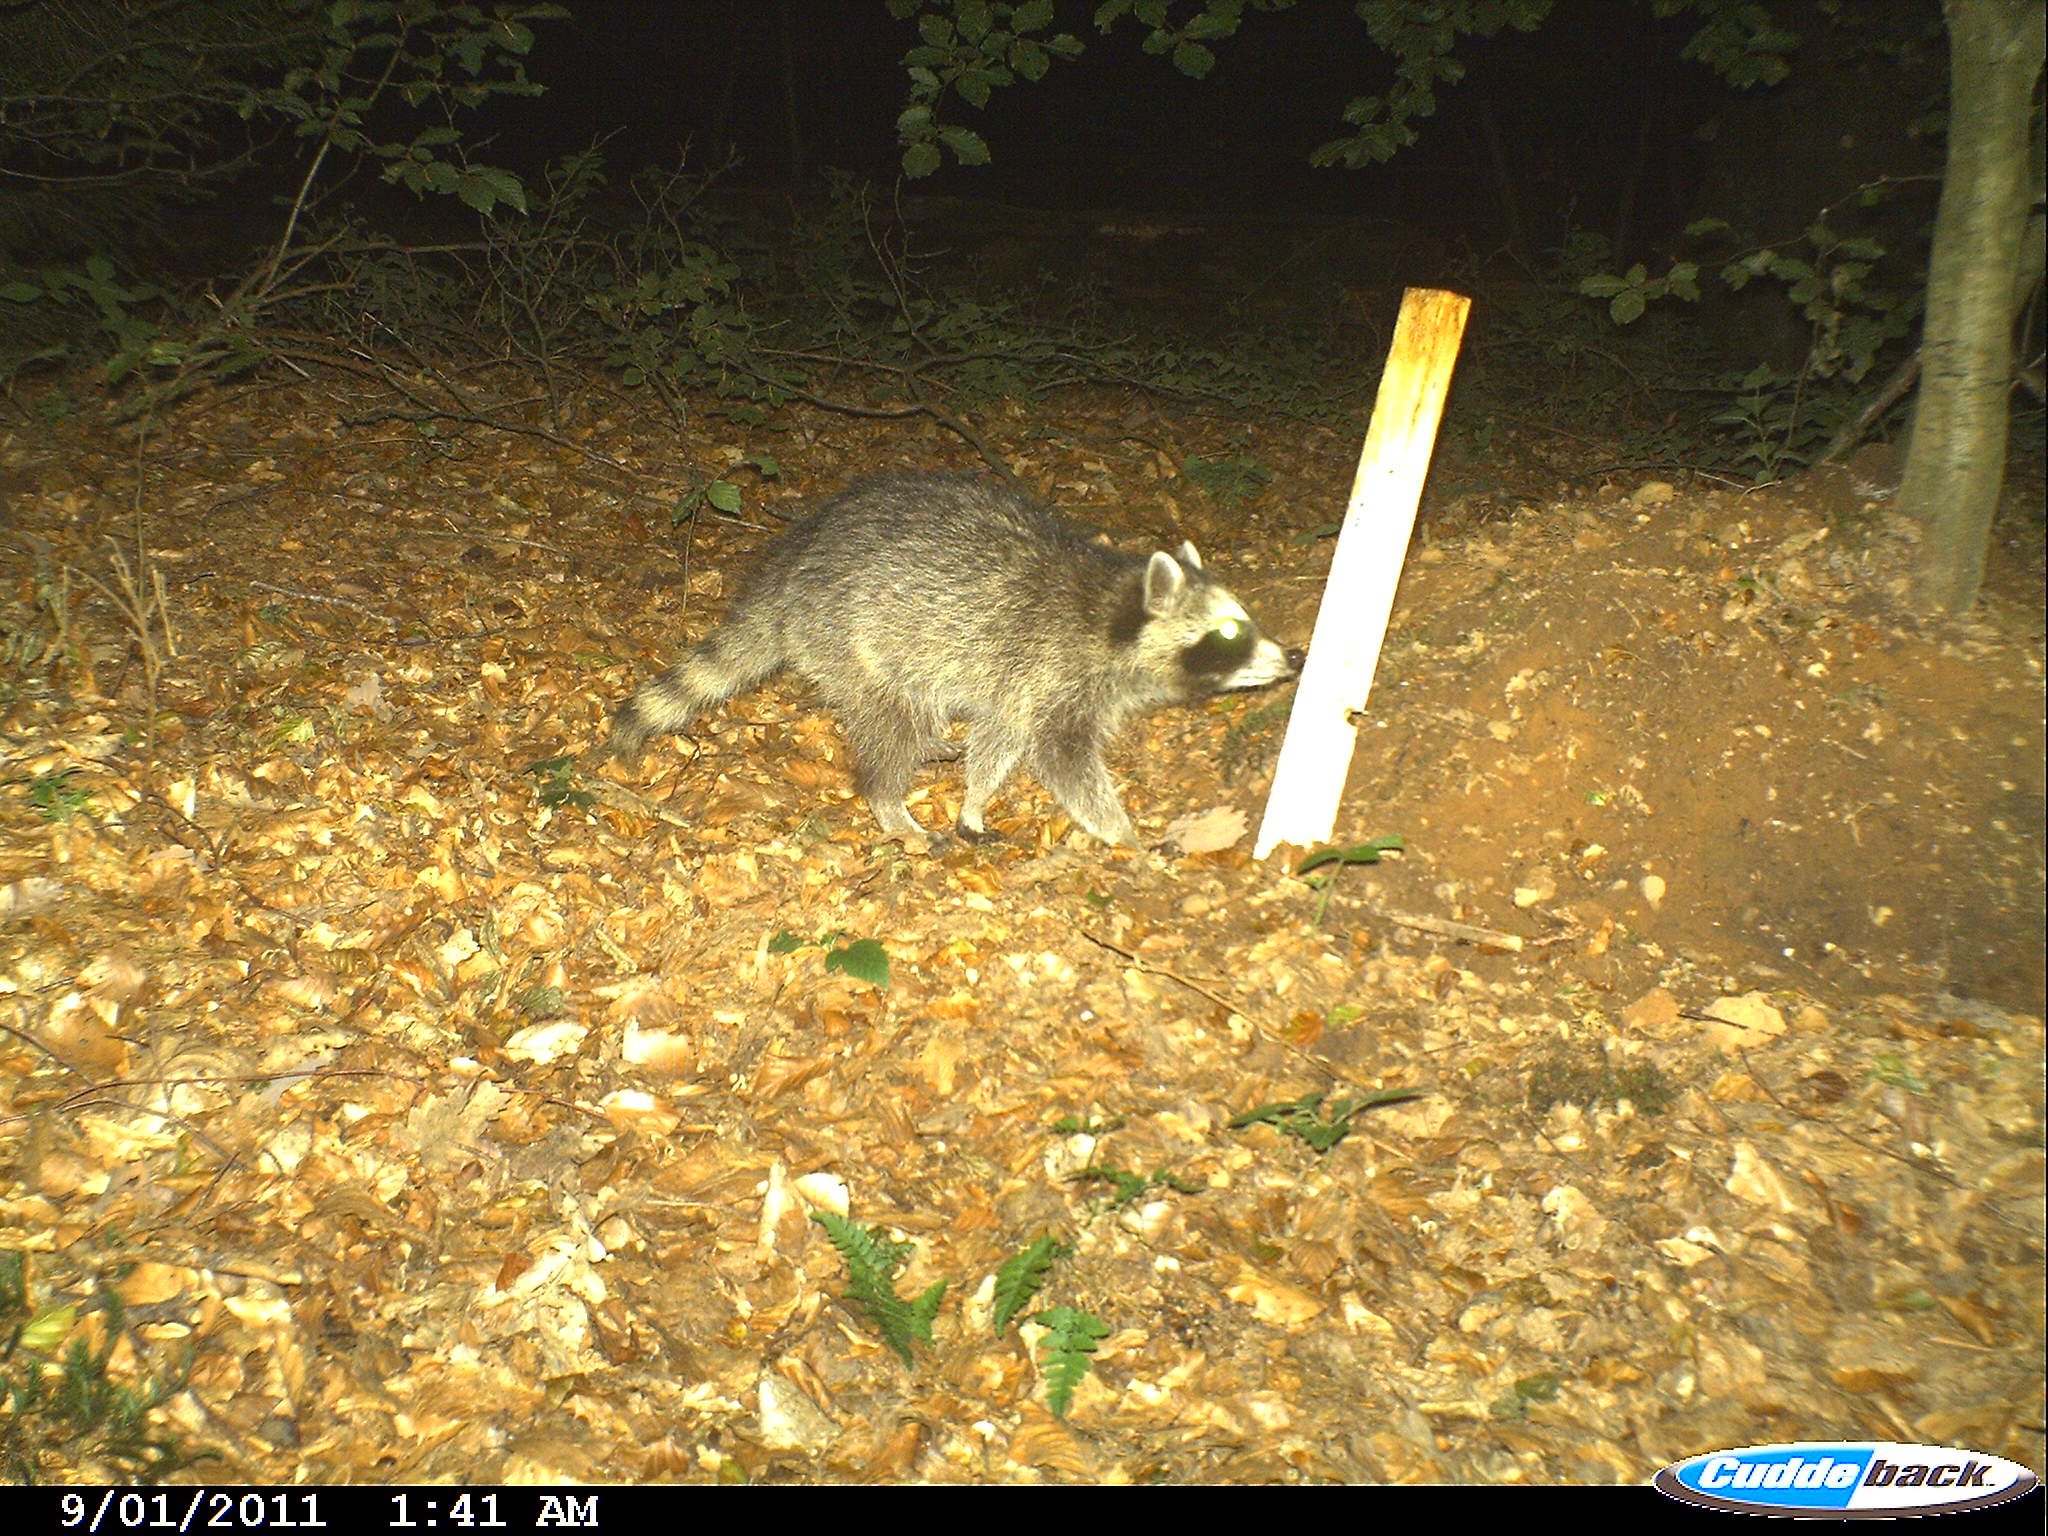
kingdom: Animalia
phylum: Chordata
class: Mammalia
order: Carnivora
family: Procyonidae
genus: Procyon
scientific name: Procyon lotor
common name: Raccoon
